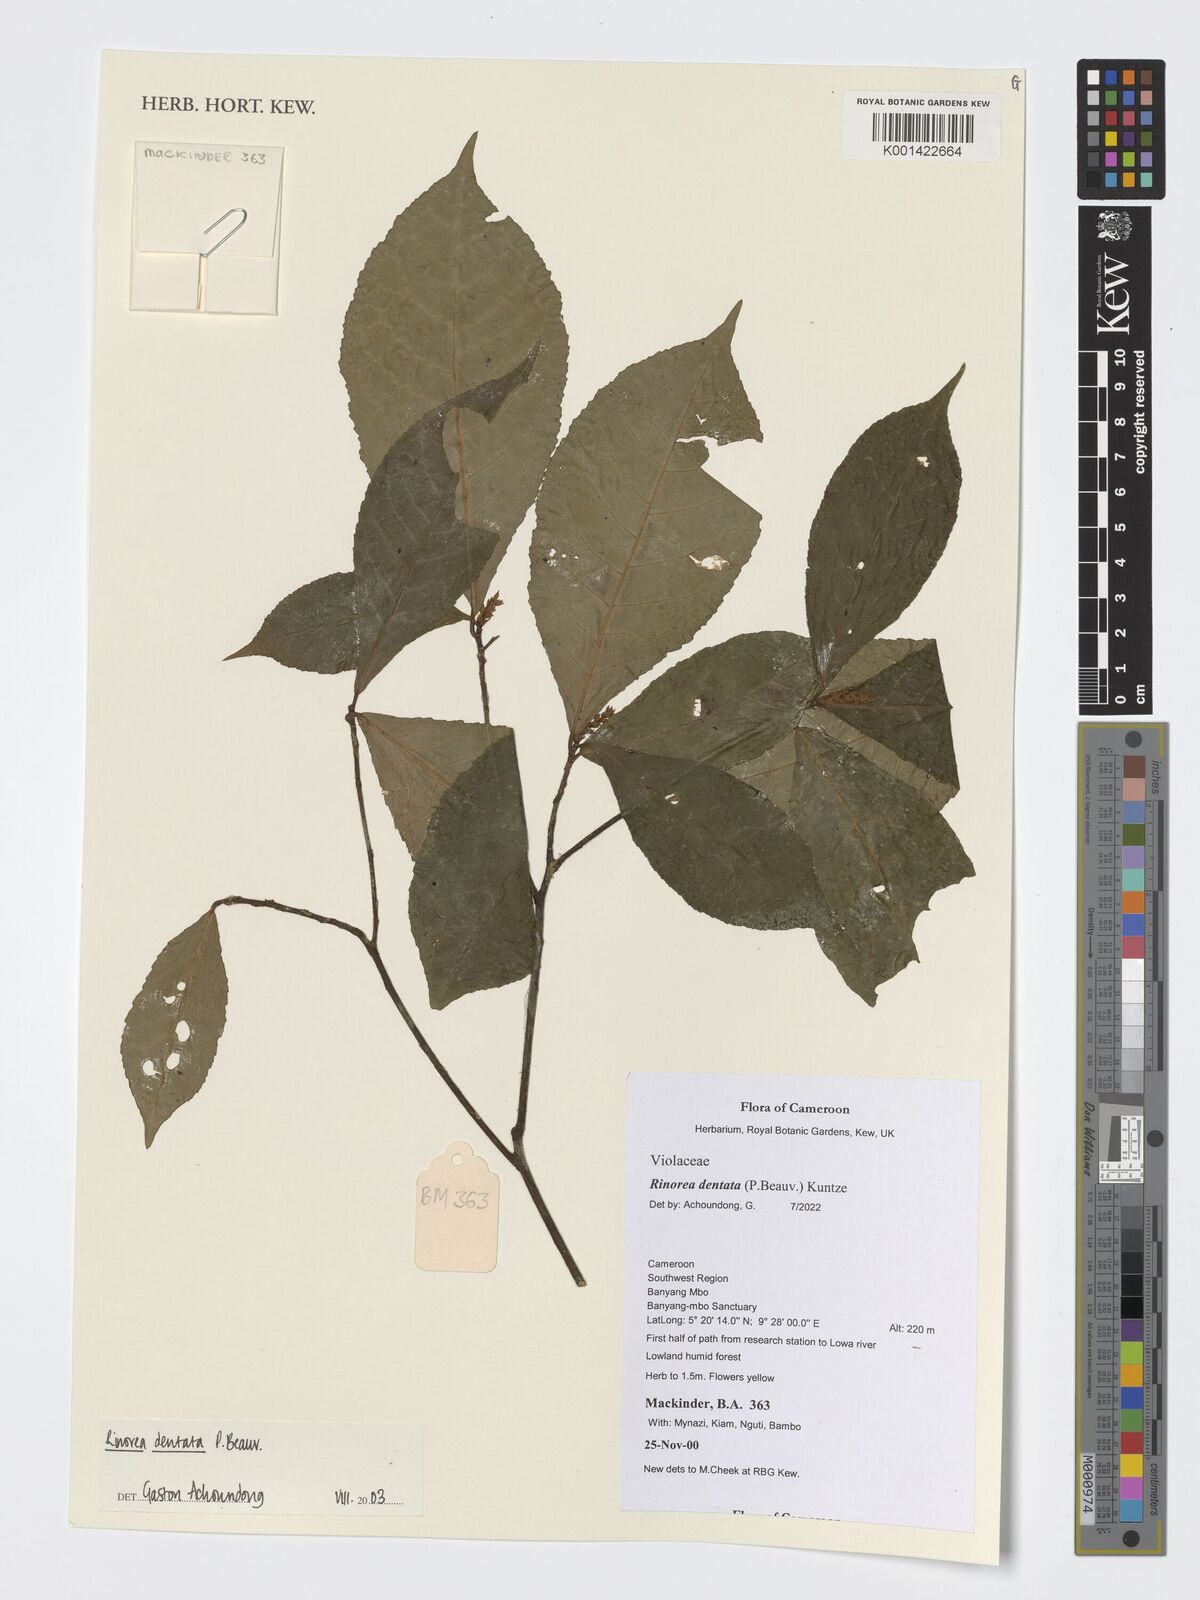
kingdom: Plantae
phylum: Tracheophyta
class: Magnoliopsida
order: Malpighiales
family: Violaceae
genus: Rinorea
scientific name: Rinorea dentata
